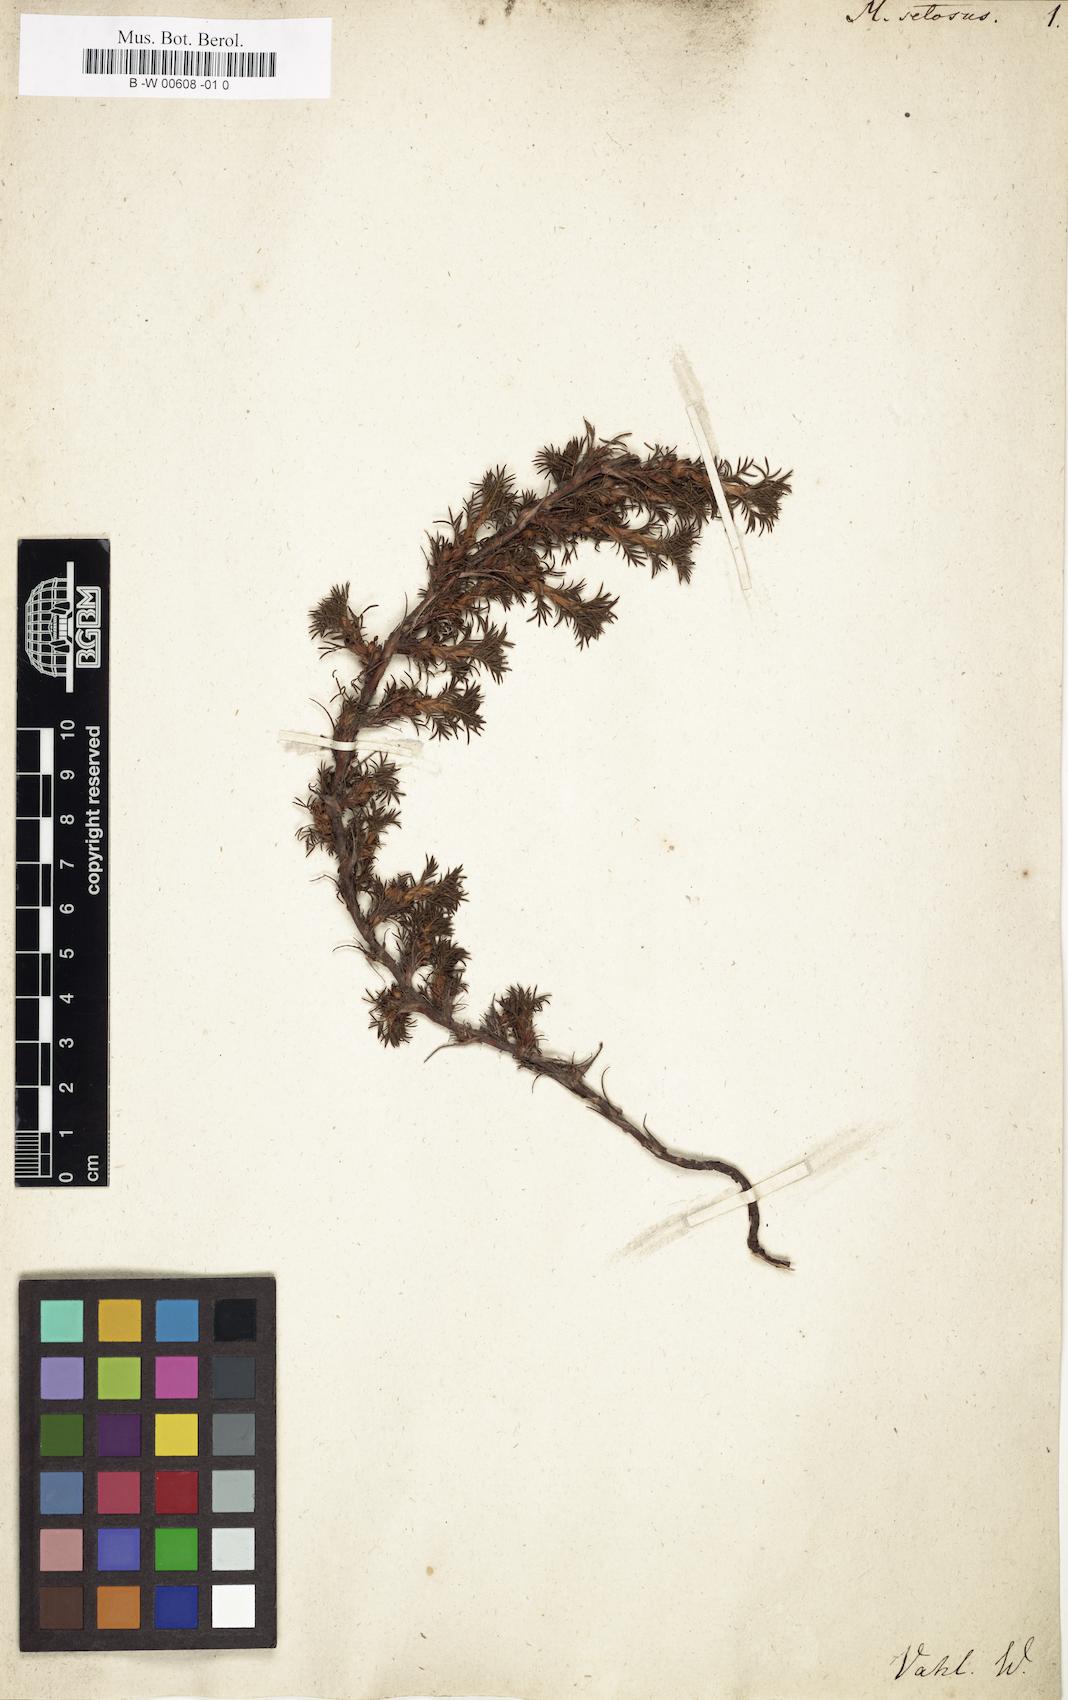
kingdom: Plantae
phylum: Tracheophyta
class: Magnoliopsida
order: Rosales
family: Rosaceae
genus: Margyricarpus
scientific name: Margyricarpus pinnatus
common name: Pearlfruit
